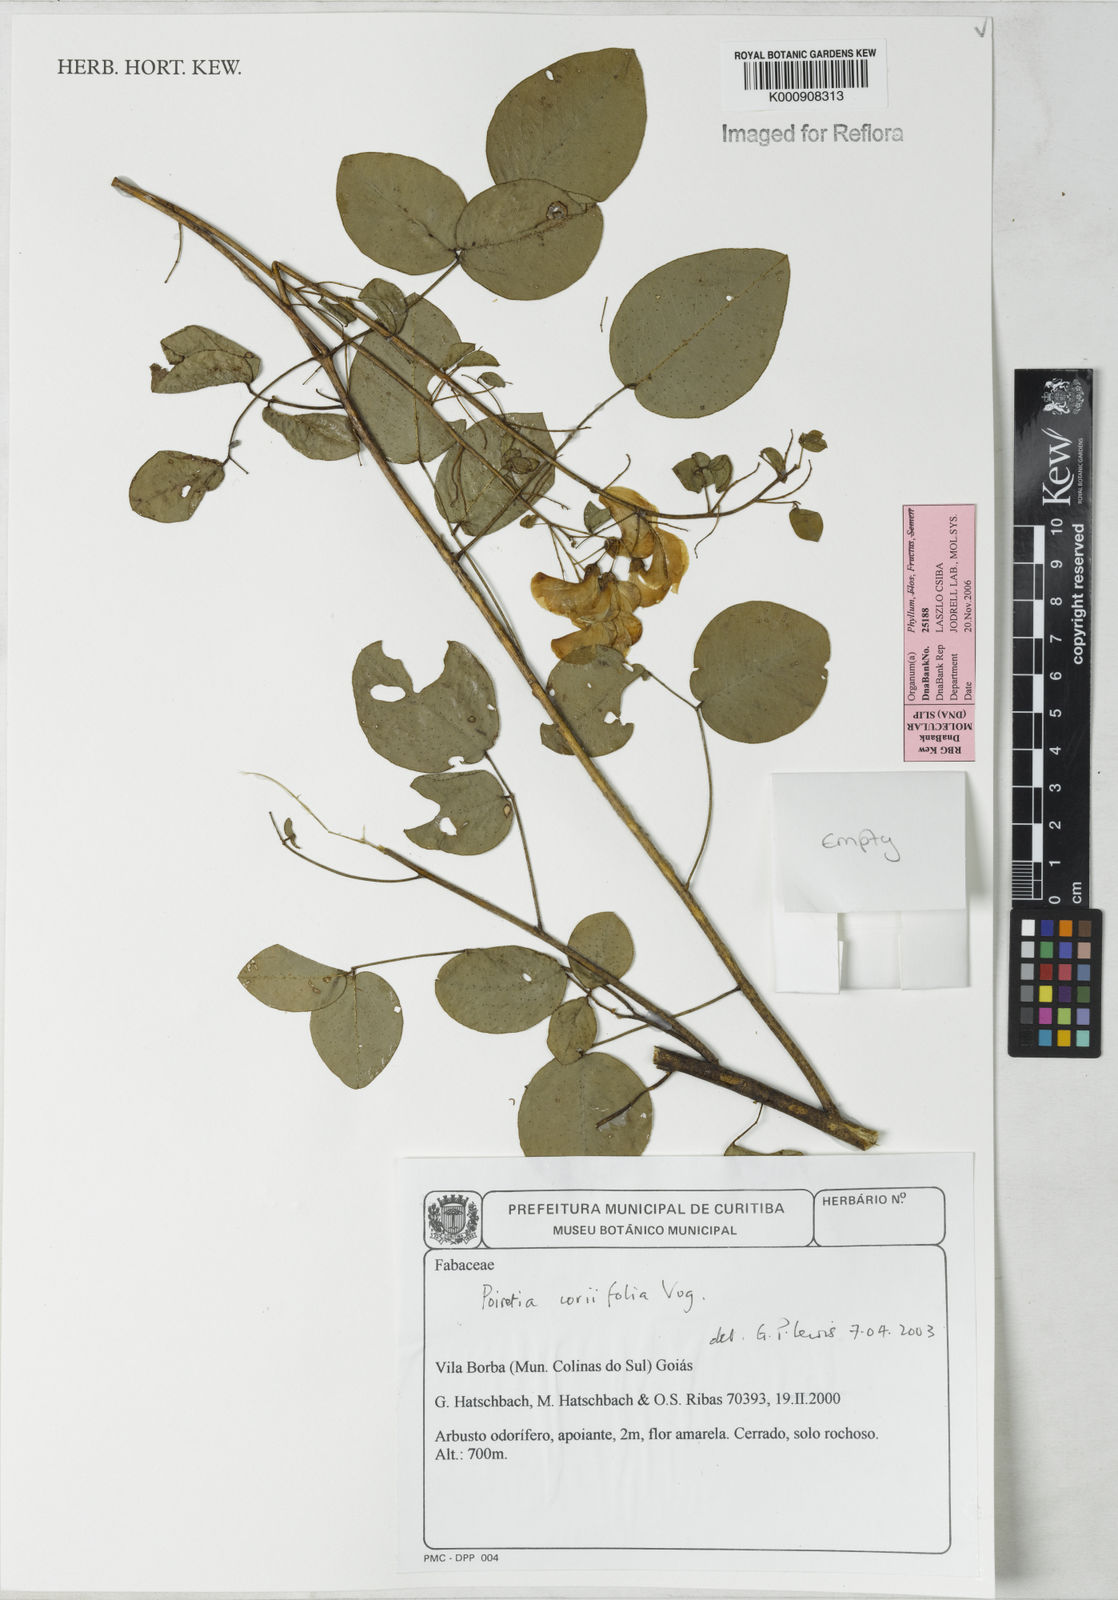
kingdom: Plantae
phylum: Tracheophyta
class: Magnoliopsida
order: Fabales
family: Fabaceae
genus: Poiretia
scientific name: Poiretia coriifolia
